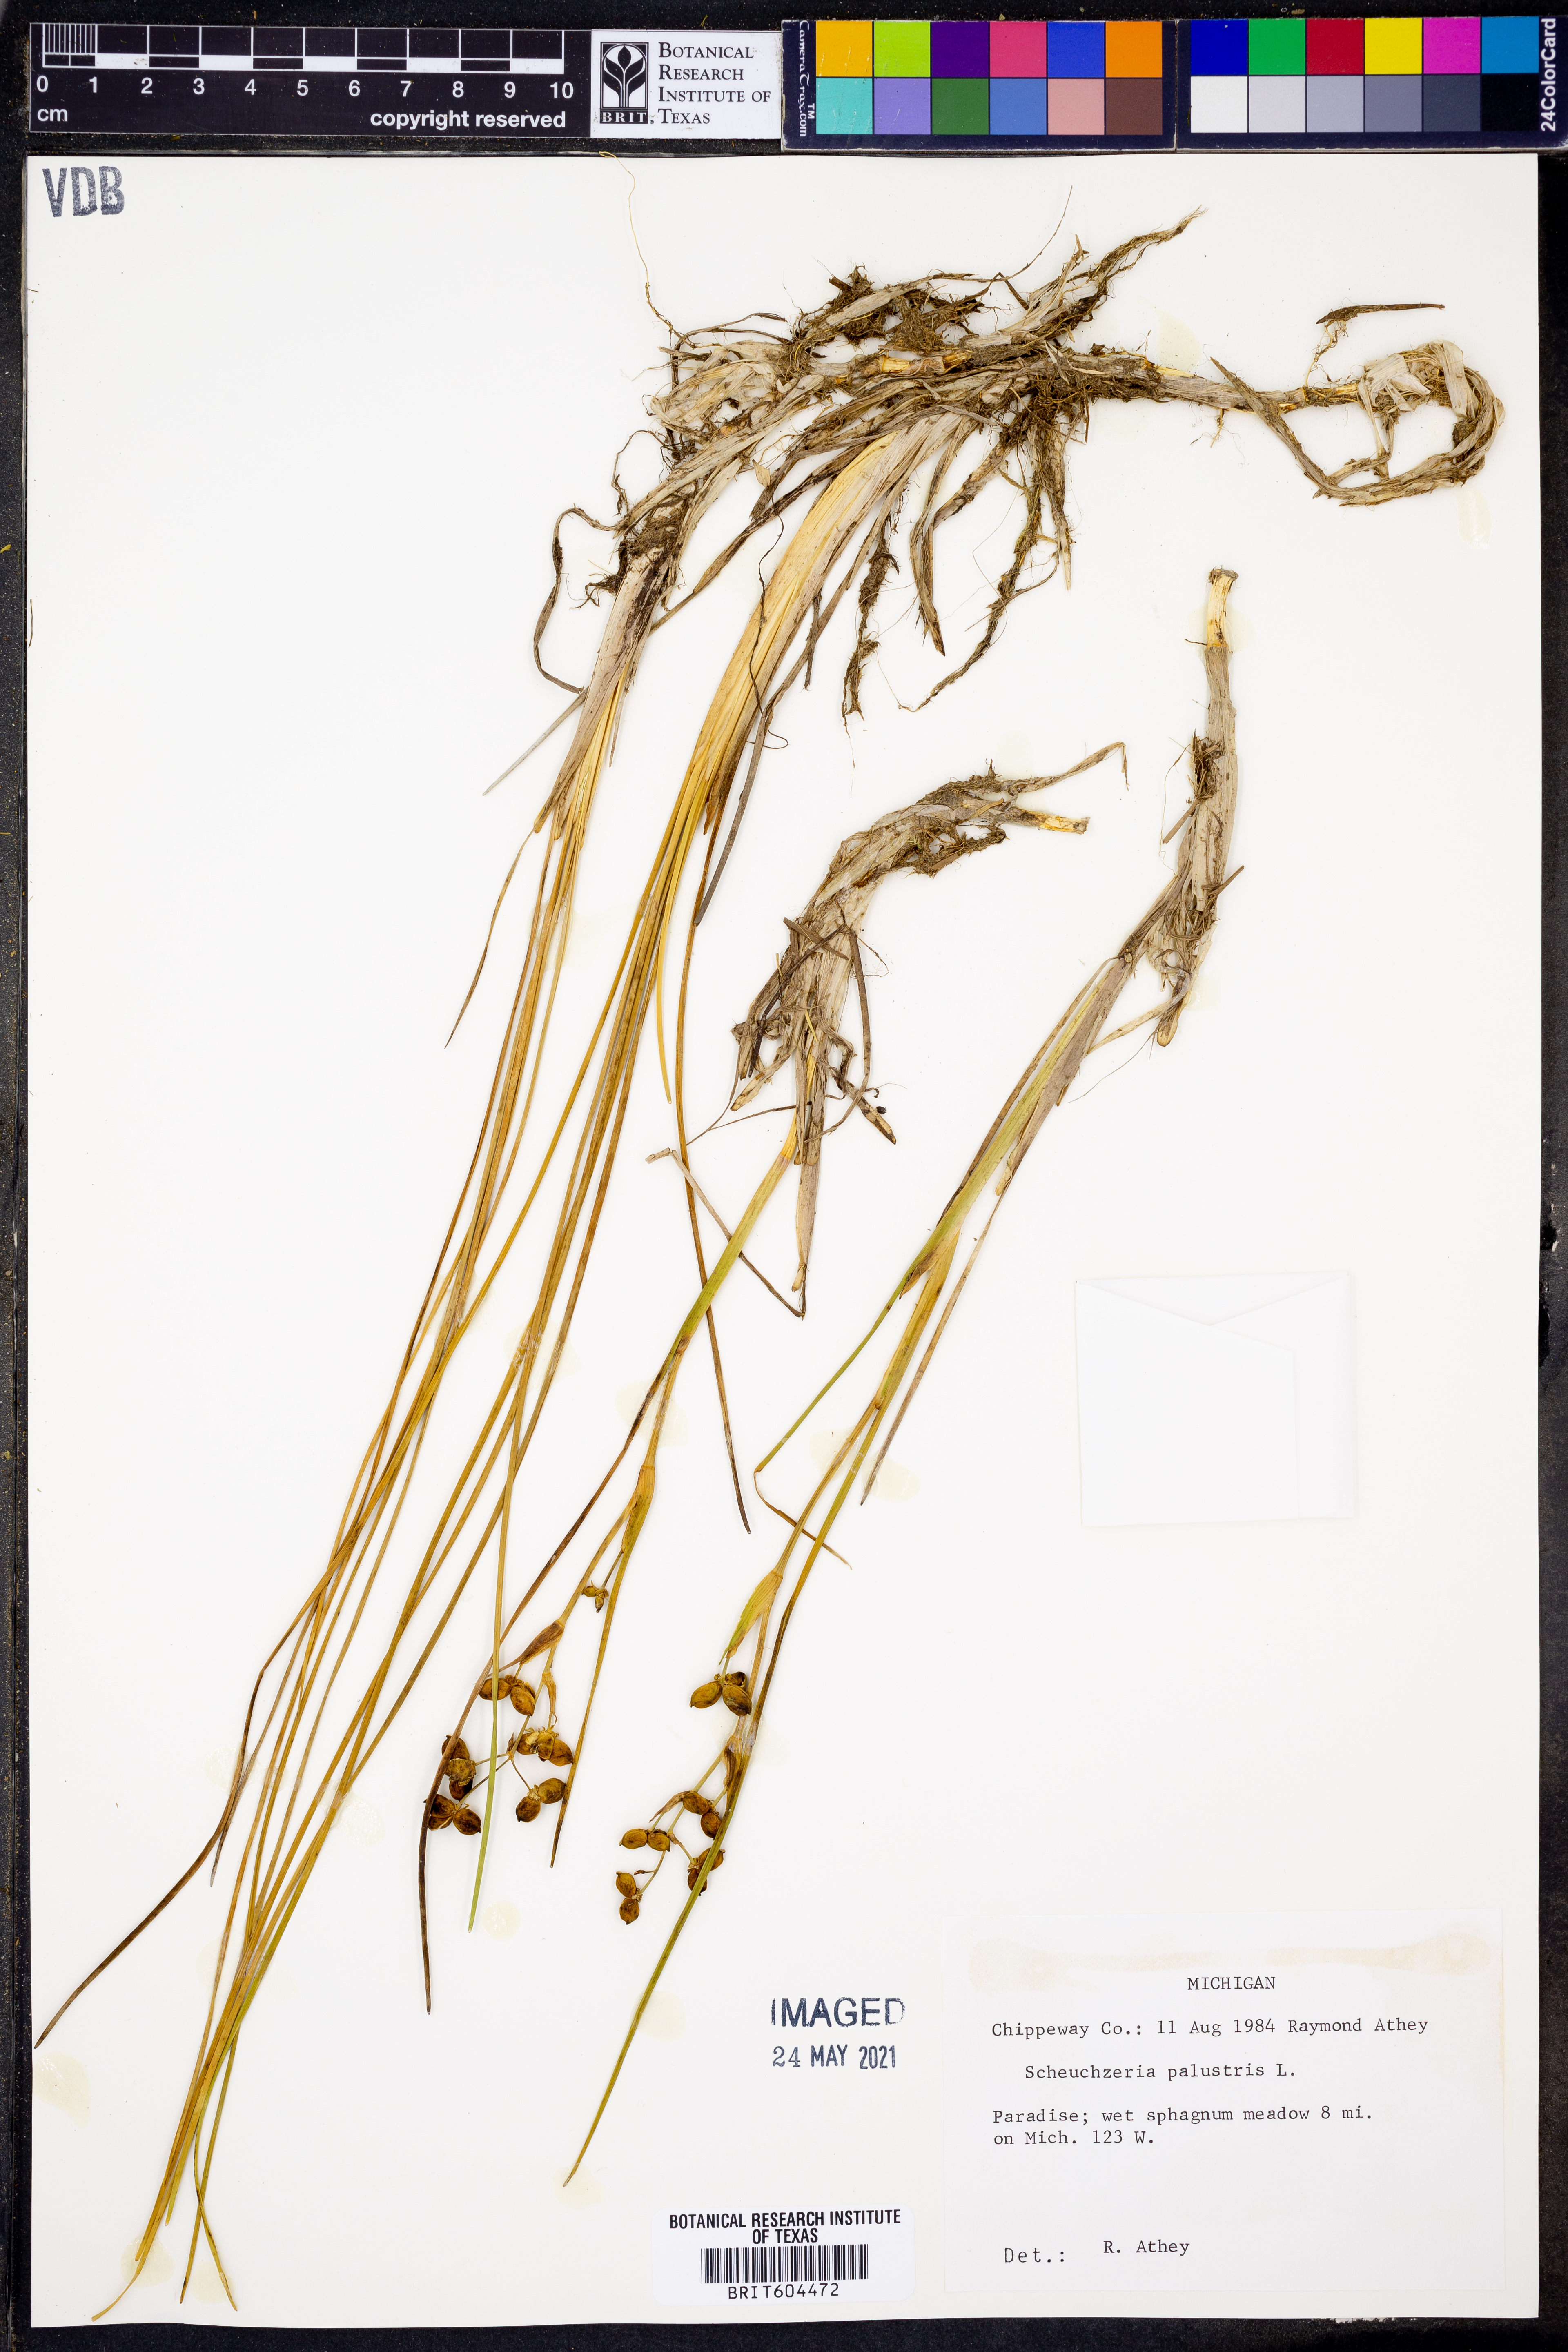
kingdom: Plantae
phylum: Tracheophyta
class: Liliopsida
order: Alismatales
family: Scheuchzeriaceae
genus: Scheuchzeria
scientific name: Scheuchzeria palustris
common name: Rannoch-rush
